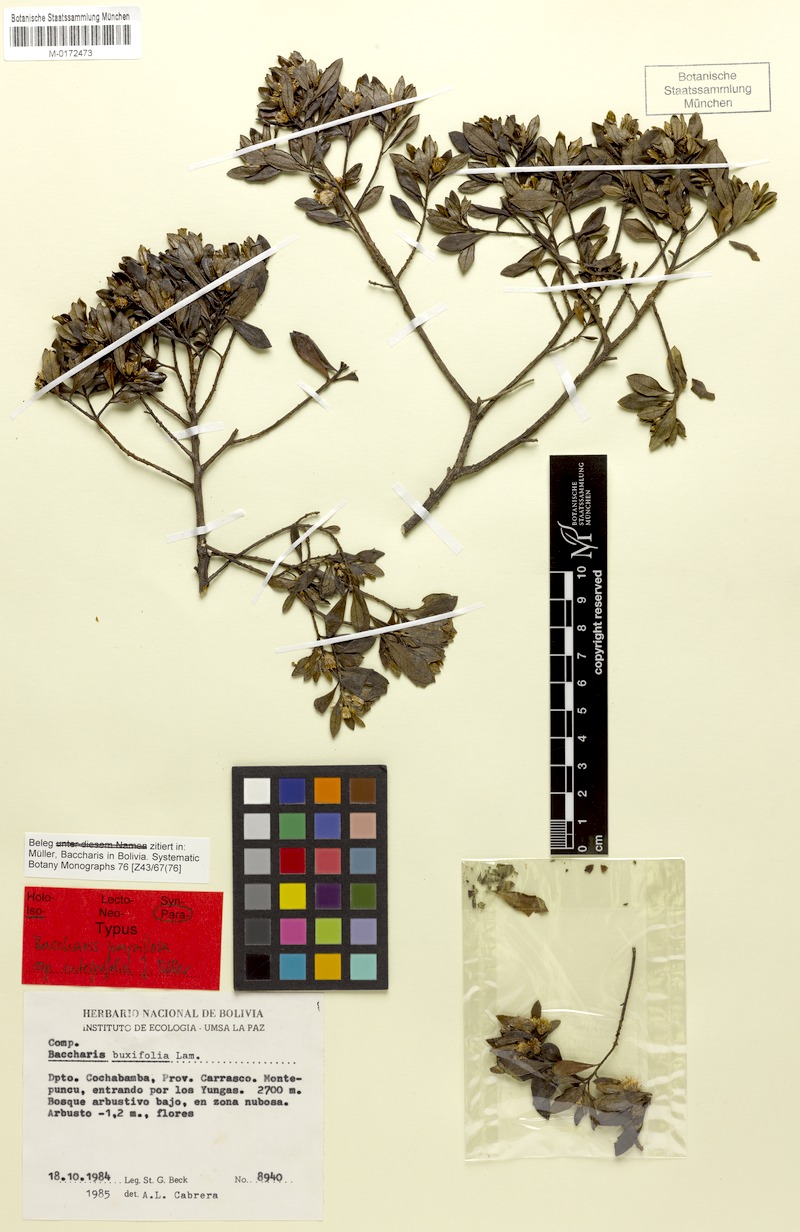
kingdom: Plantae
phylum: Tracheophyta
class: Magnoliopsida
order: Asterales
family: Asteraceae
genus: Baccharis
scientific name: Baccharis integrifolia
